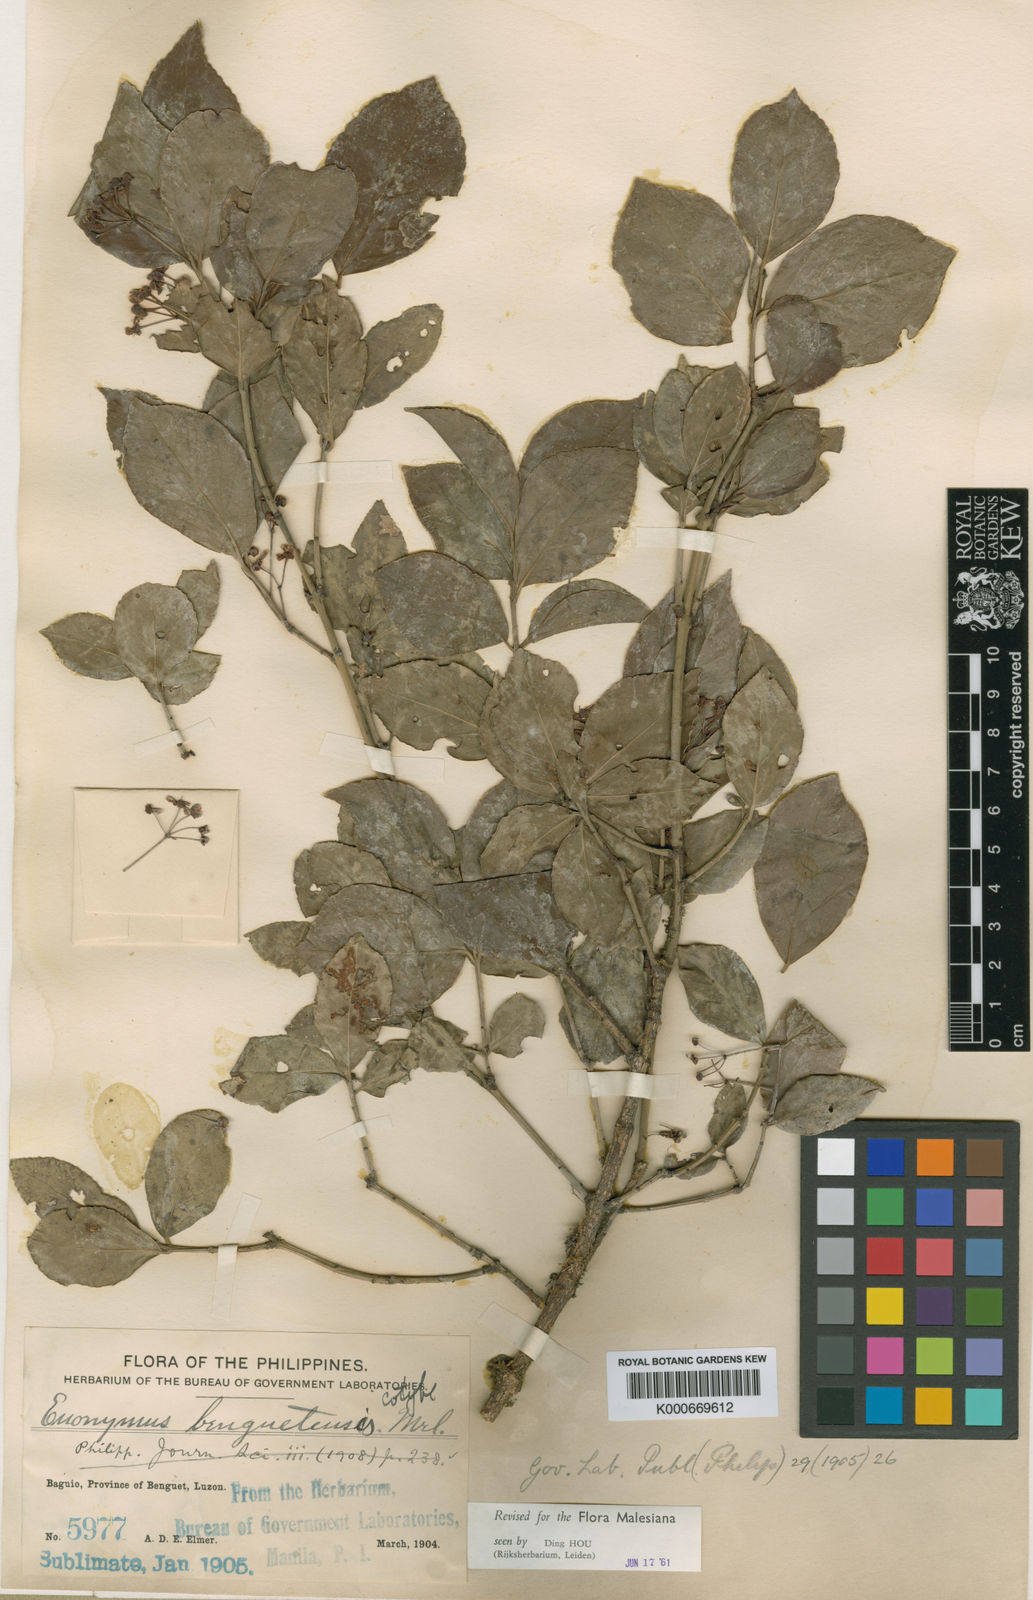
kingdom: Plantae
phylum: Tracheophyta
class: Magnoliopsida
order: Celastrales
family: Celastraceae
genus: Euonymus
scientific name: Euonymus benguetensis
